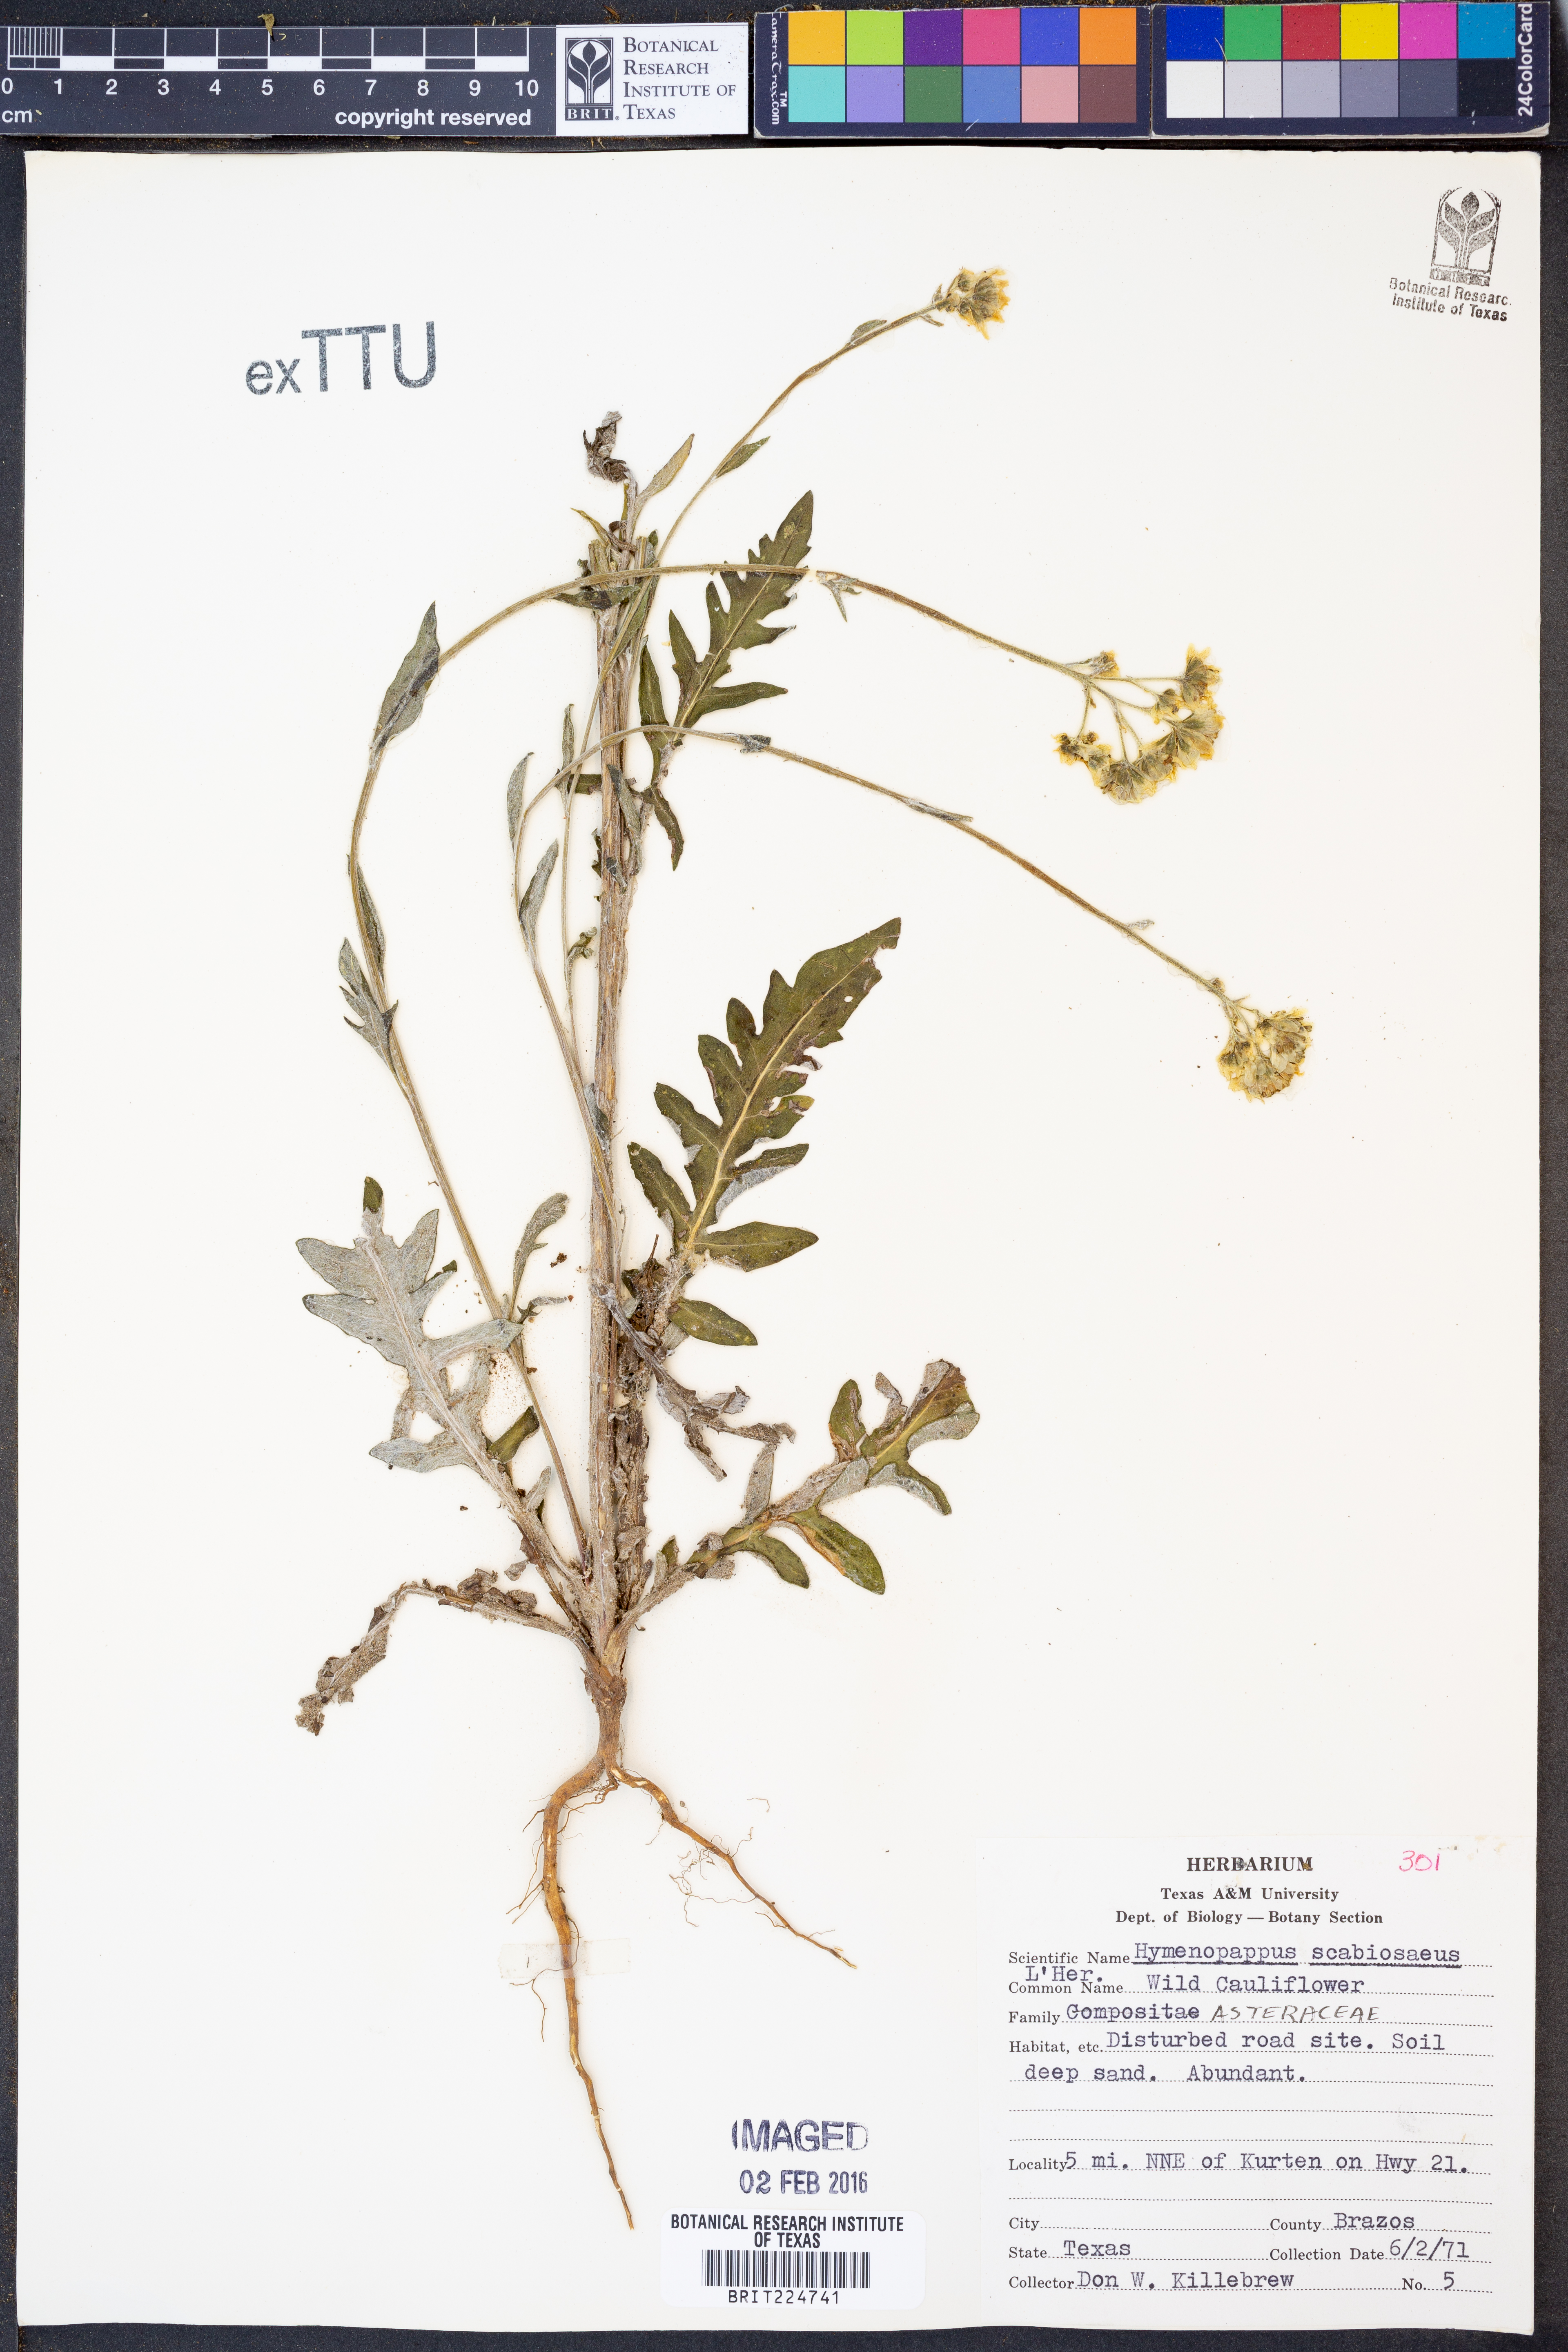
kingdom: Plantae
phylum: Tracheophyta
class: Magnoliopsida
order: Asterales
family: Asteraceae
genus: Hymenopappus
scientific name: Hymenopappus scabiosaeus
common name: Carolina woollywhite
